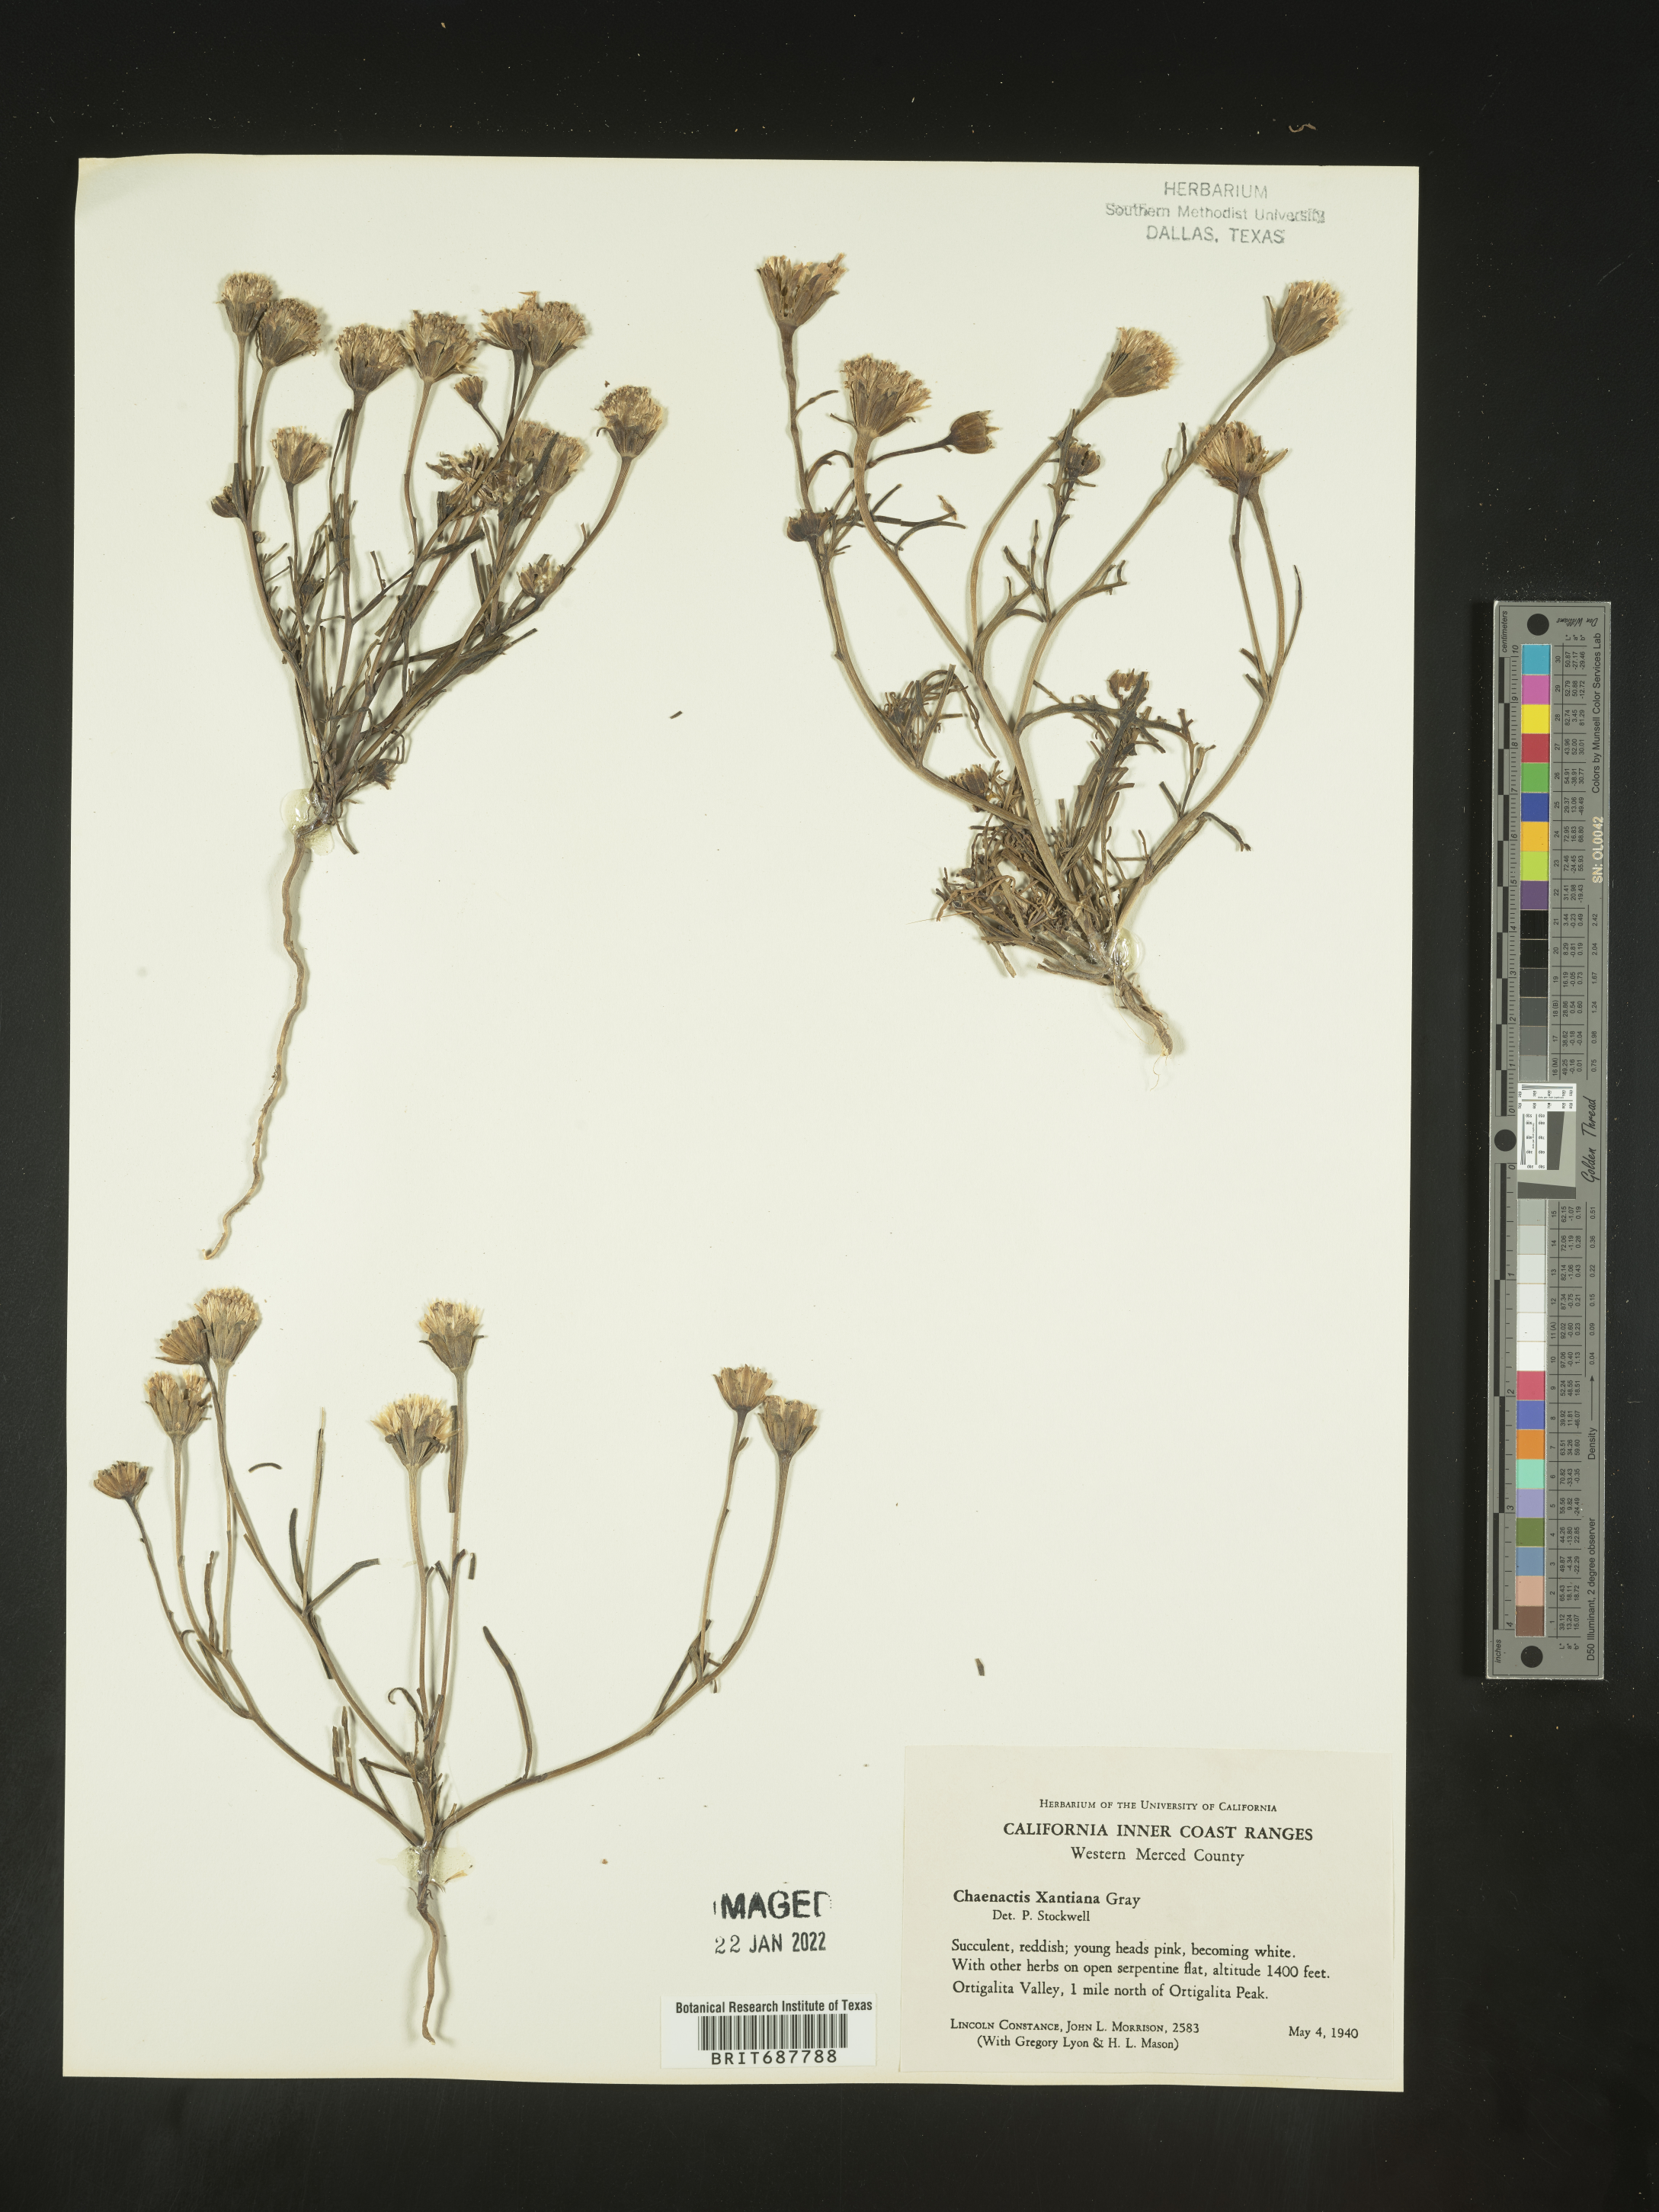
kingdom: Plantae
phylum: Tracheophyta
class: Magnoliopsida
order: Asterales
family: Asteraceae
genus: Chaenactis
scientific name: Chaenactis xantiana
